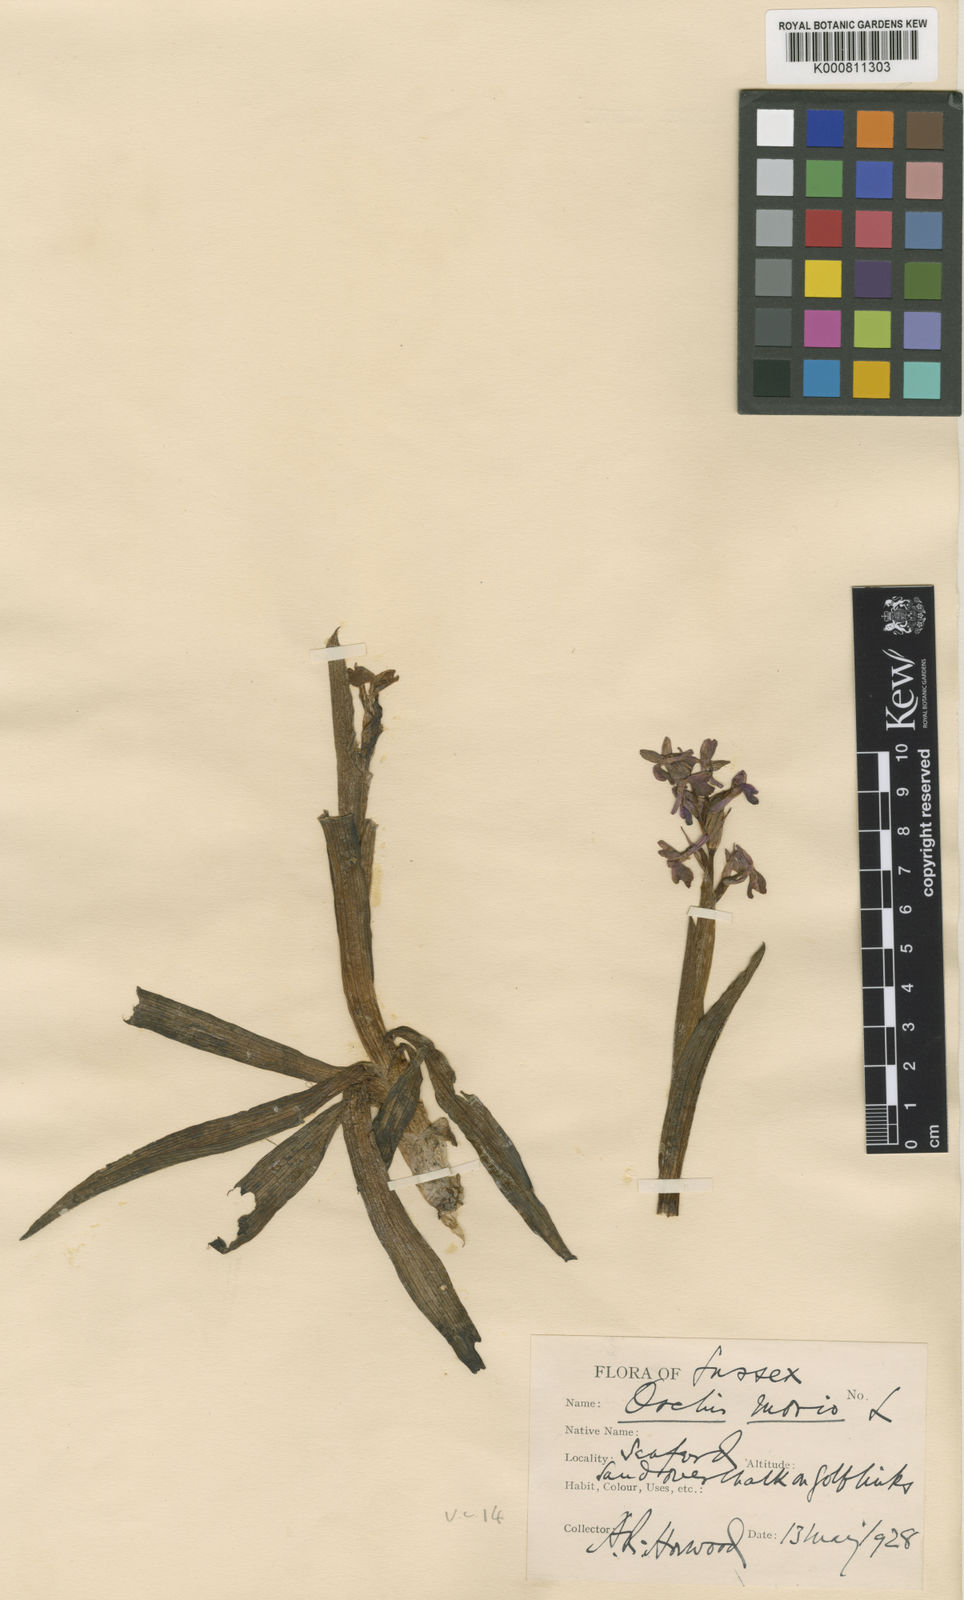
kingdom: Plantae
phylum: Tracheophyta
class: Liliopsida
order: Asparagales
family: Orchidaceae
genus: Anacamptis
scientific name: Anacamptis morio
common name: Green-winged orchid
